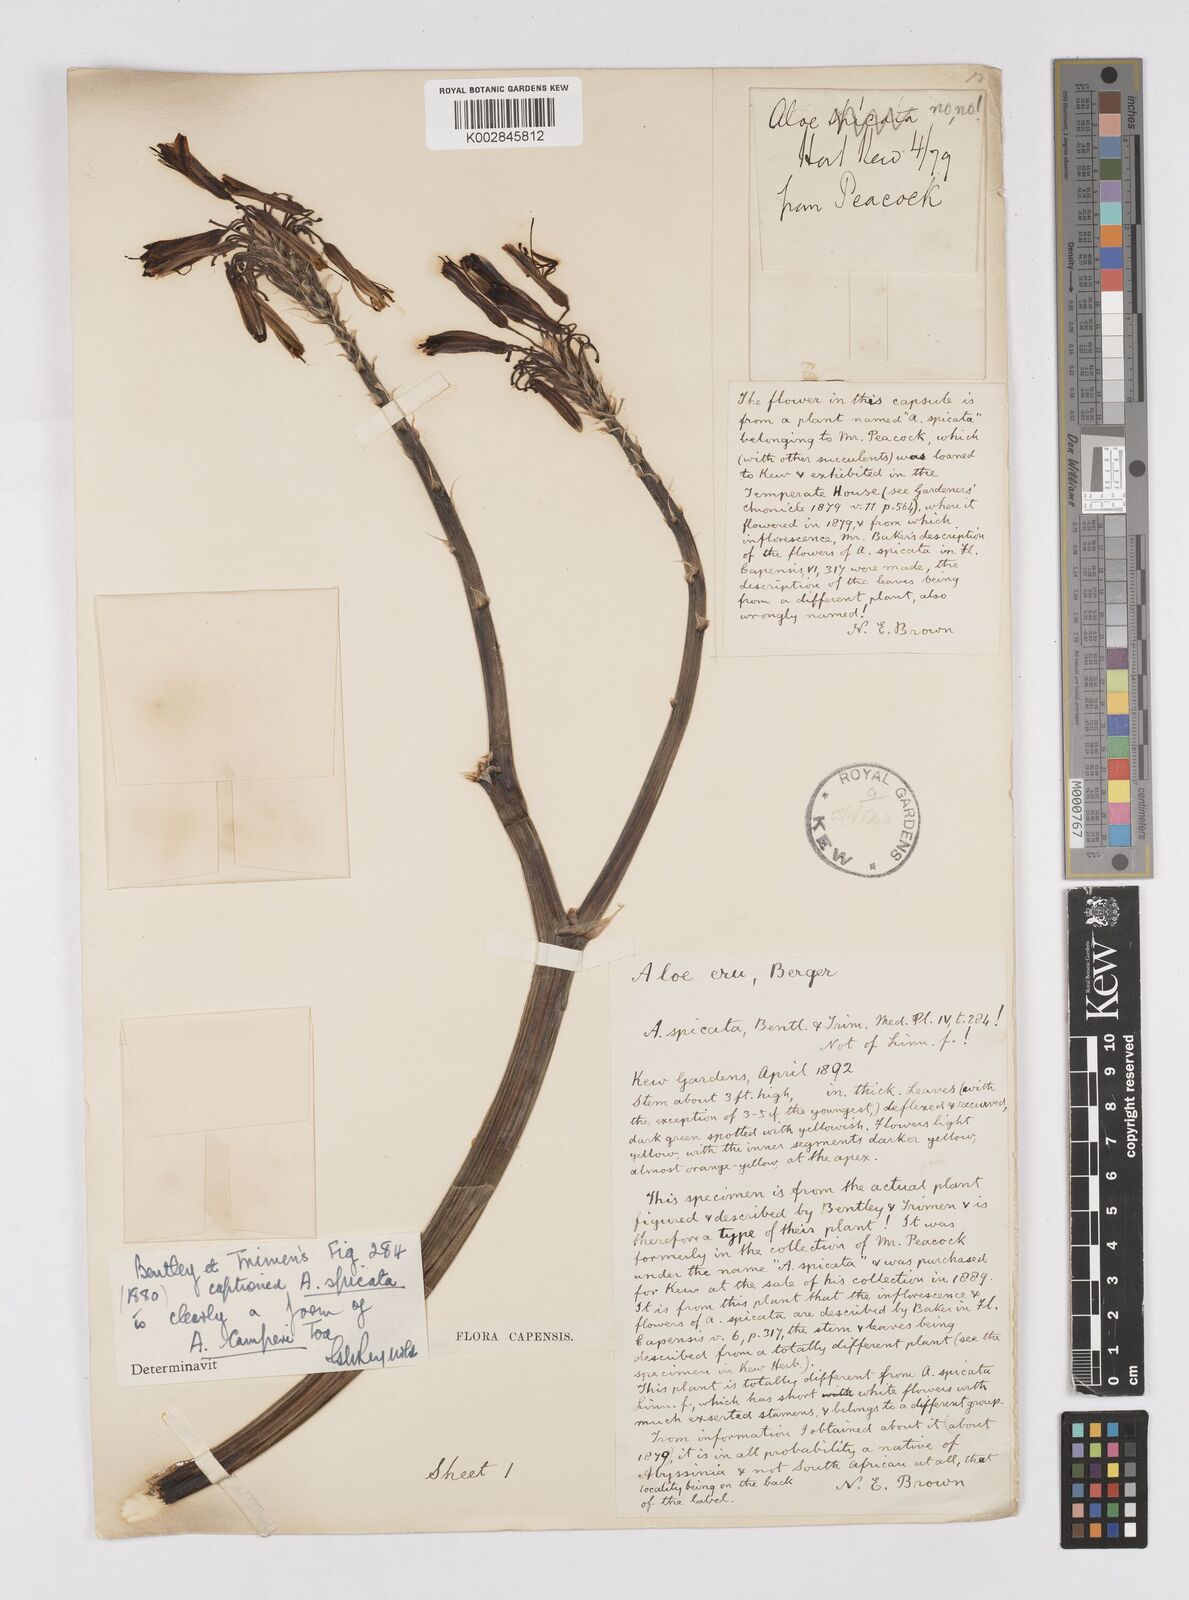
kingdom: Plantae
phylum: Tracheophyta
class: Liliopsida
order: Asparagales
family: Asphodelaceae
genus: Aloe
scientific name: Aloe camperi
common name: Camper's aloe
